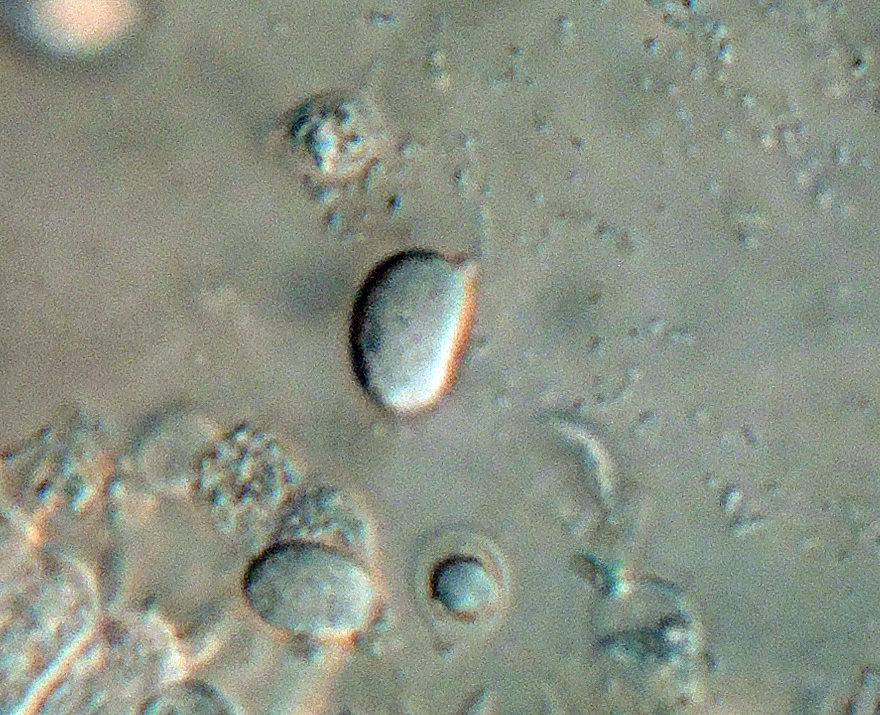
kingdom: Fungi
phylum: Basidiomycota
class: Agaricomycetes
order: Agaricales
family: Clavariaceae
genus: Clavaria
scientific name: Clavaria flavostellifera
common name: stjernegul køllesvamp
